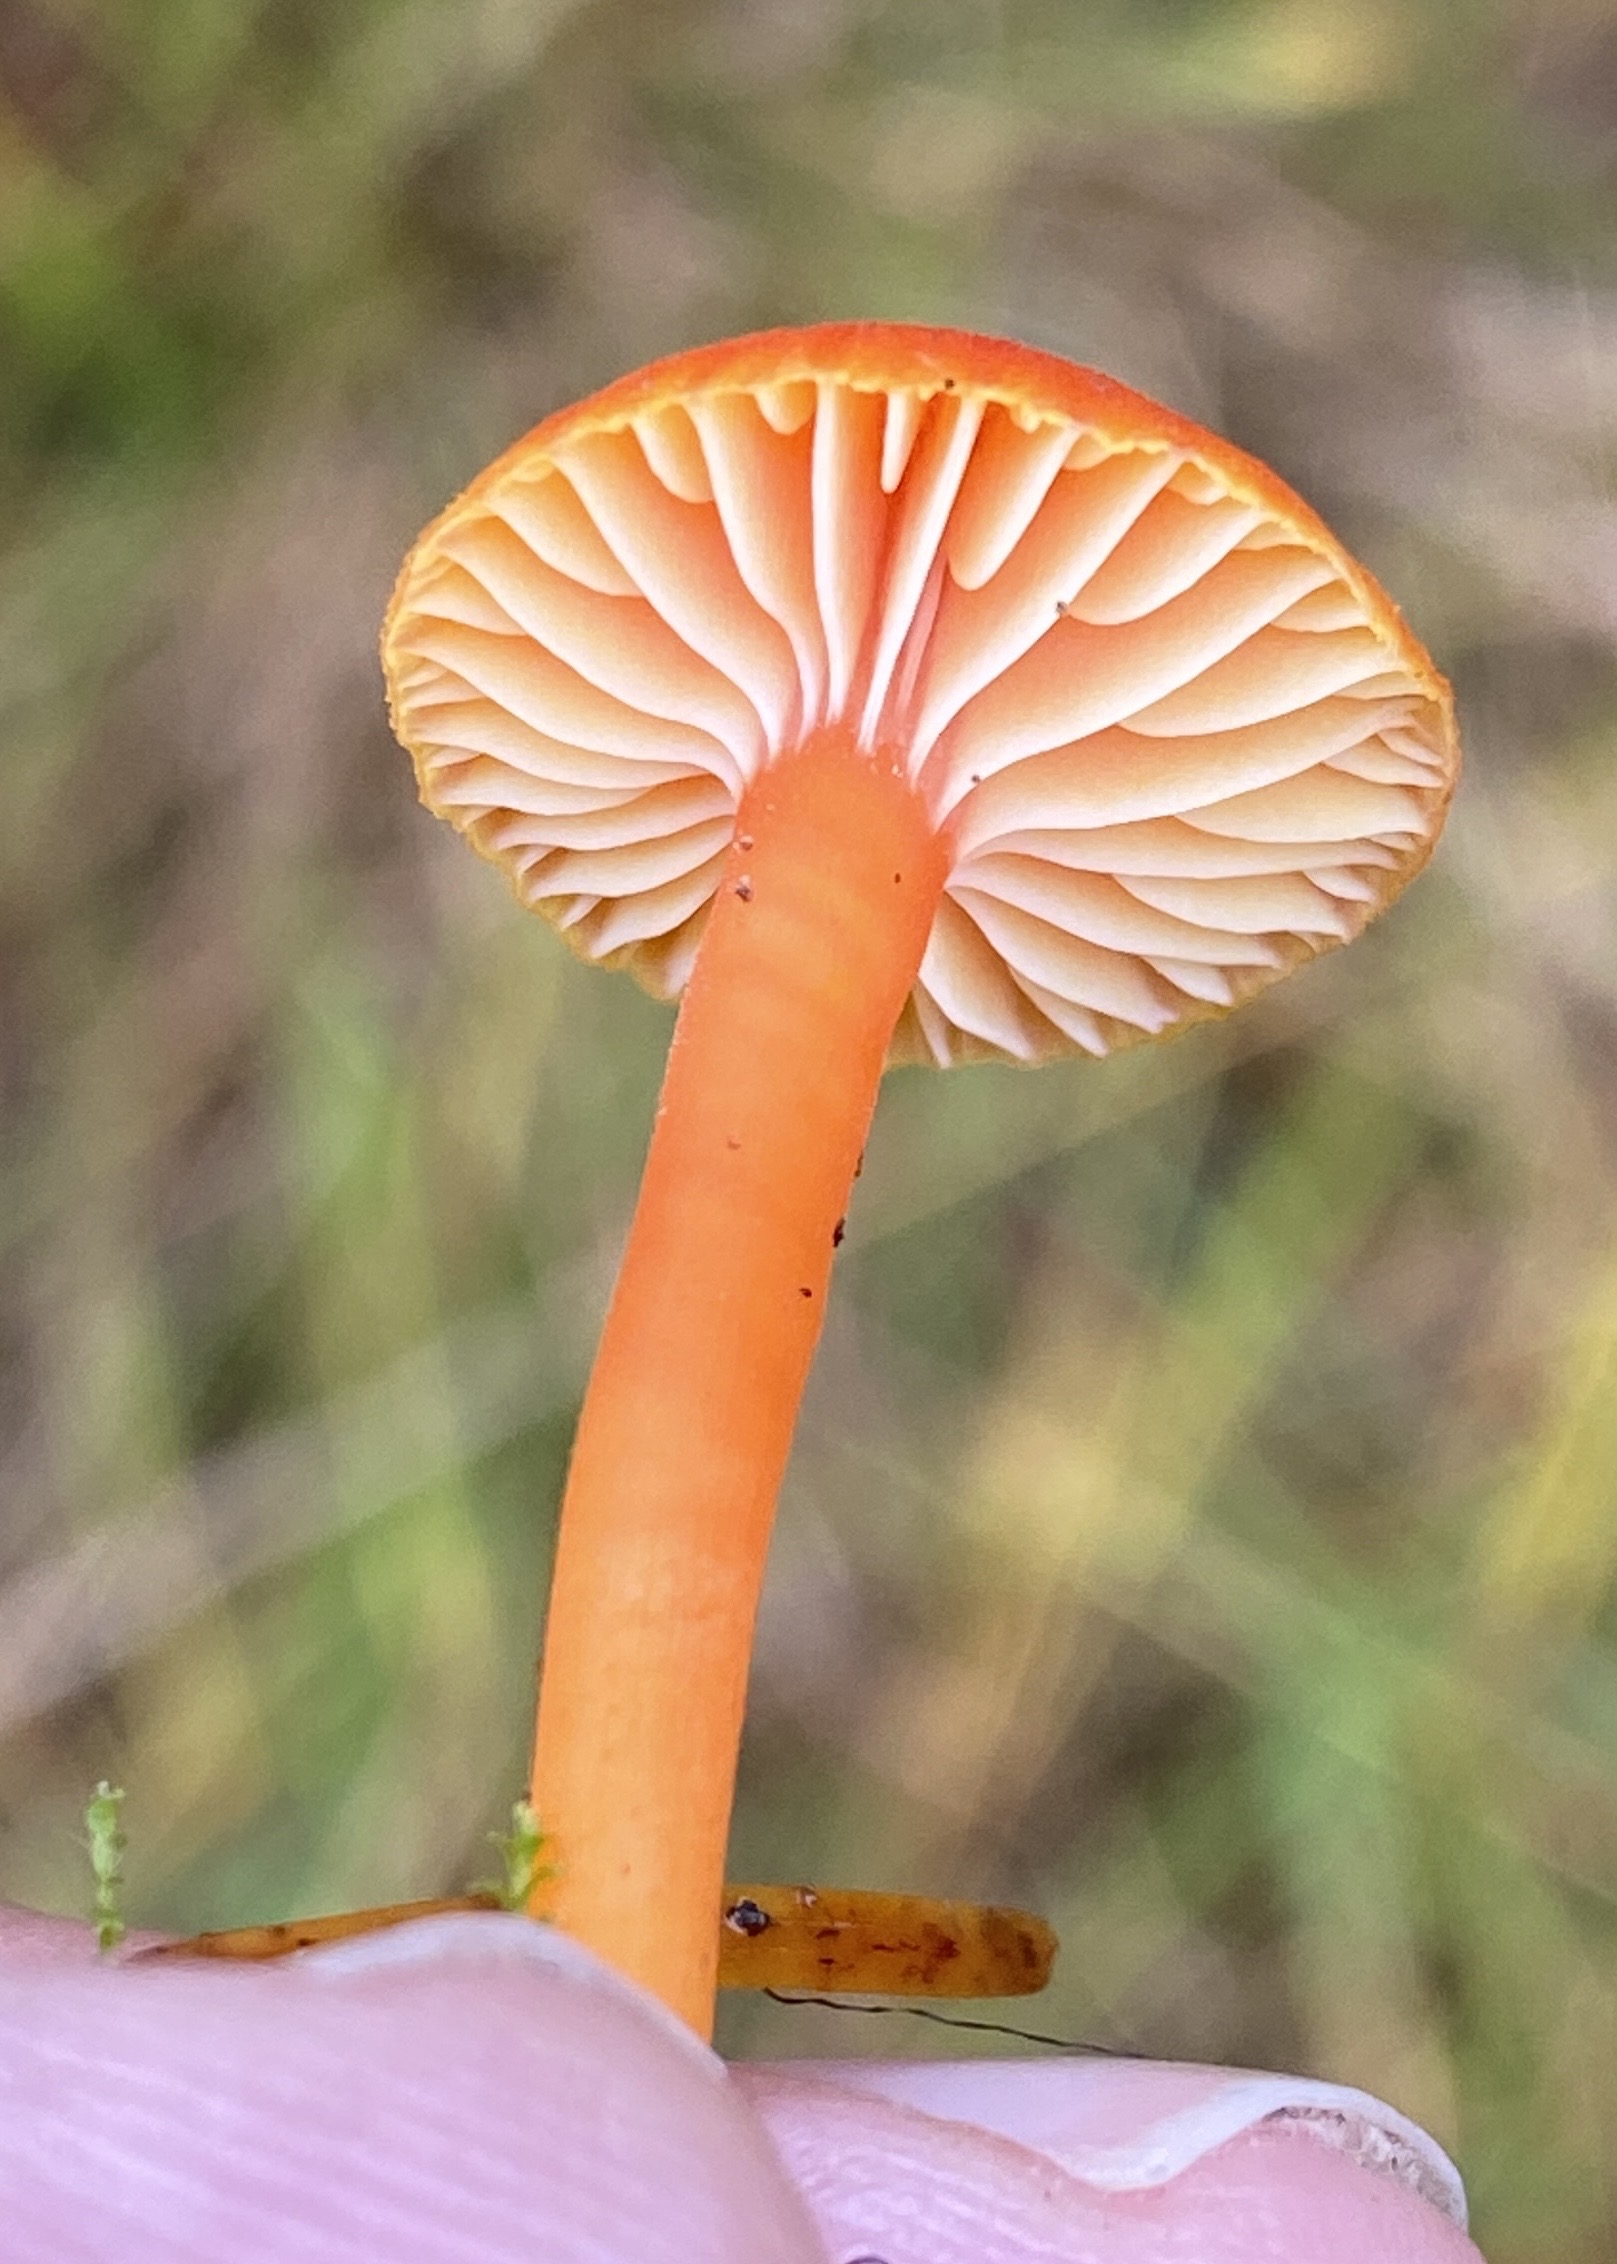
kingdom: Fungi
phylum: Basidiomycota
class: Agaricomycetes
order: Agaricales
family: Hygrophoraceae
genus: Hygrocybe
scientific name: Hygrocybe miniata
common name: mønje-vokshat
